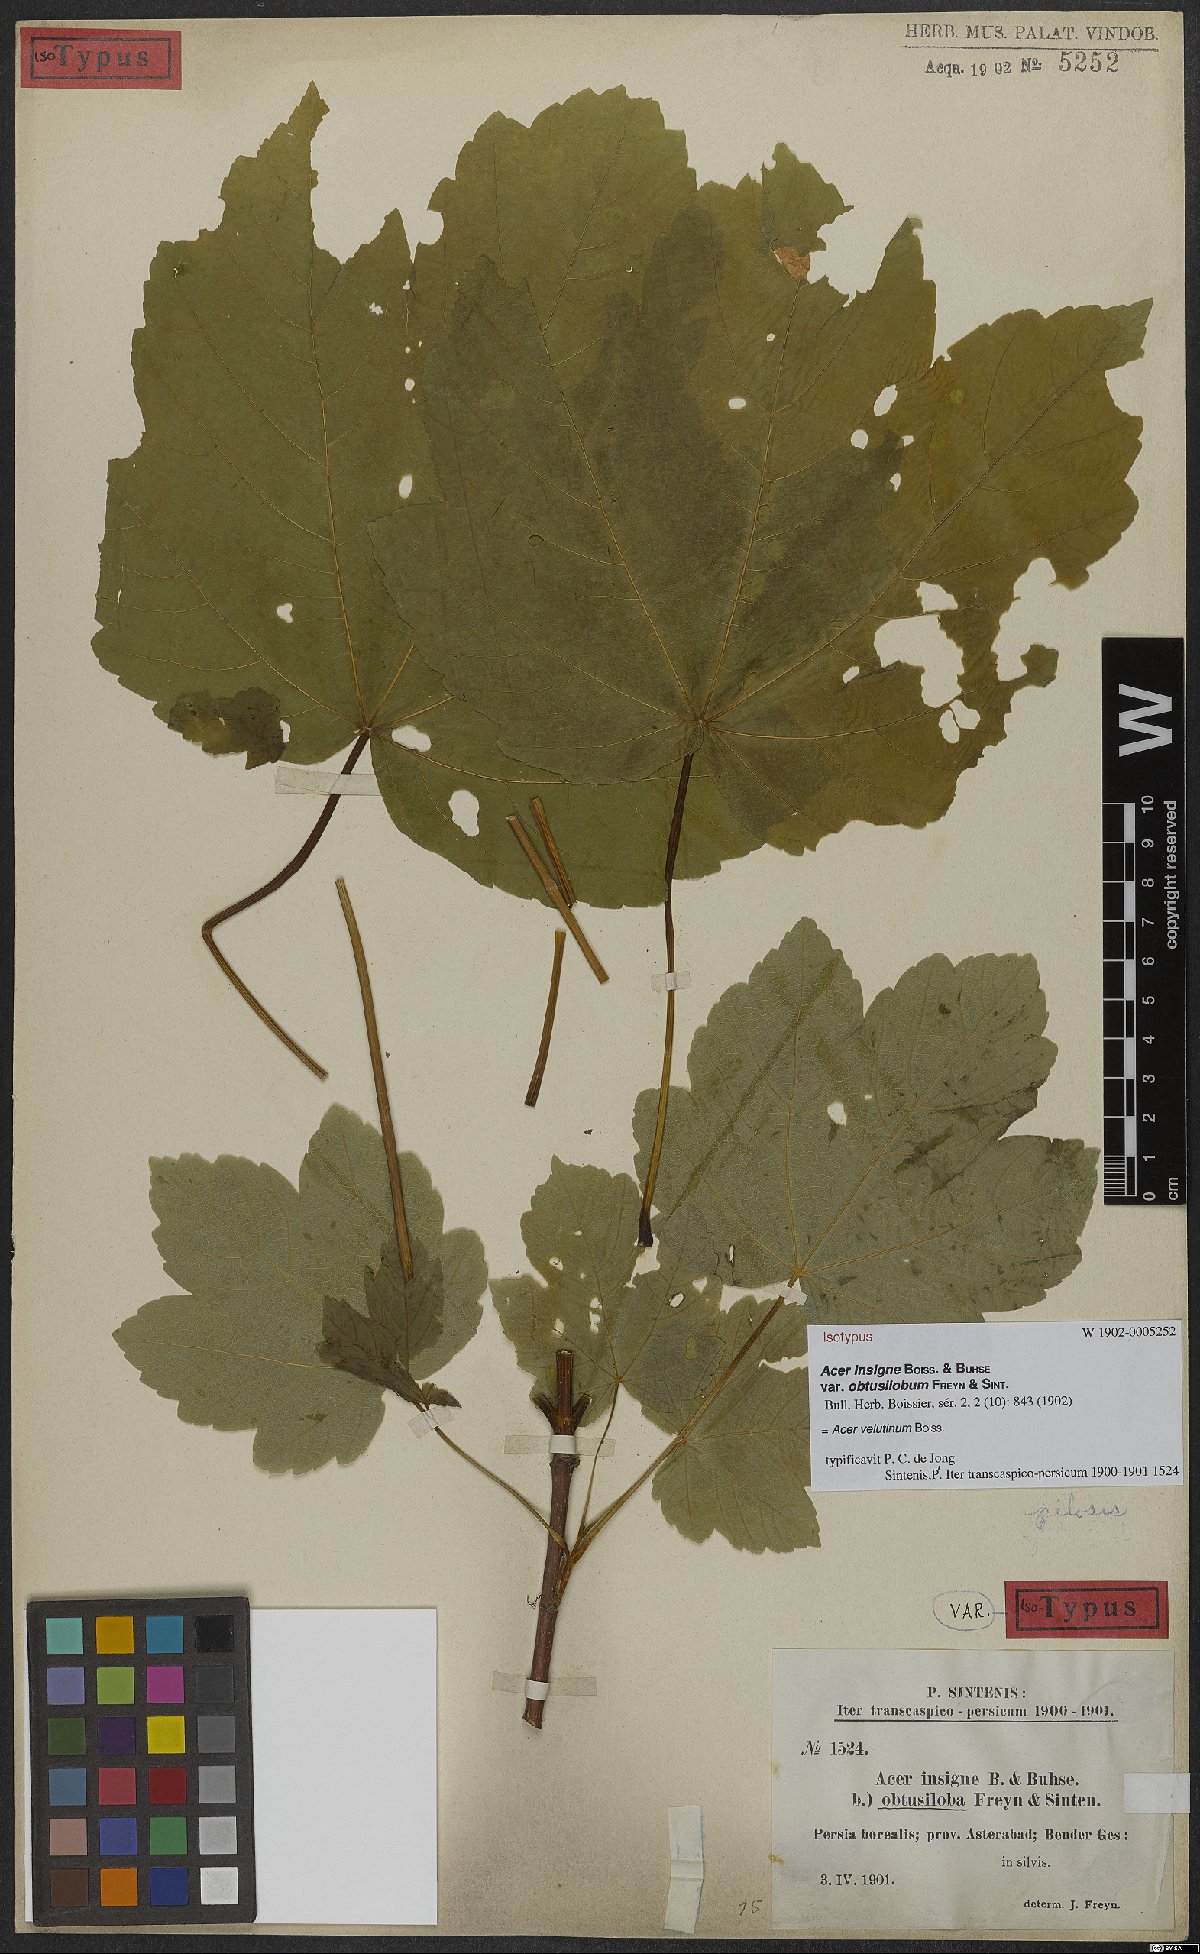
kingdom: Plantae
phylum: Tracheophyta
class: Magnoliopsida
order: Sapindales
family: Sapindaceae
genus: Acer
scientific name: Acer velutinum
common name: Velvet maple
